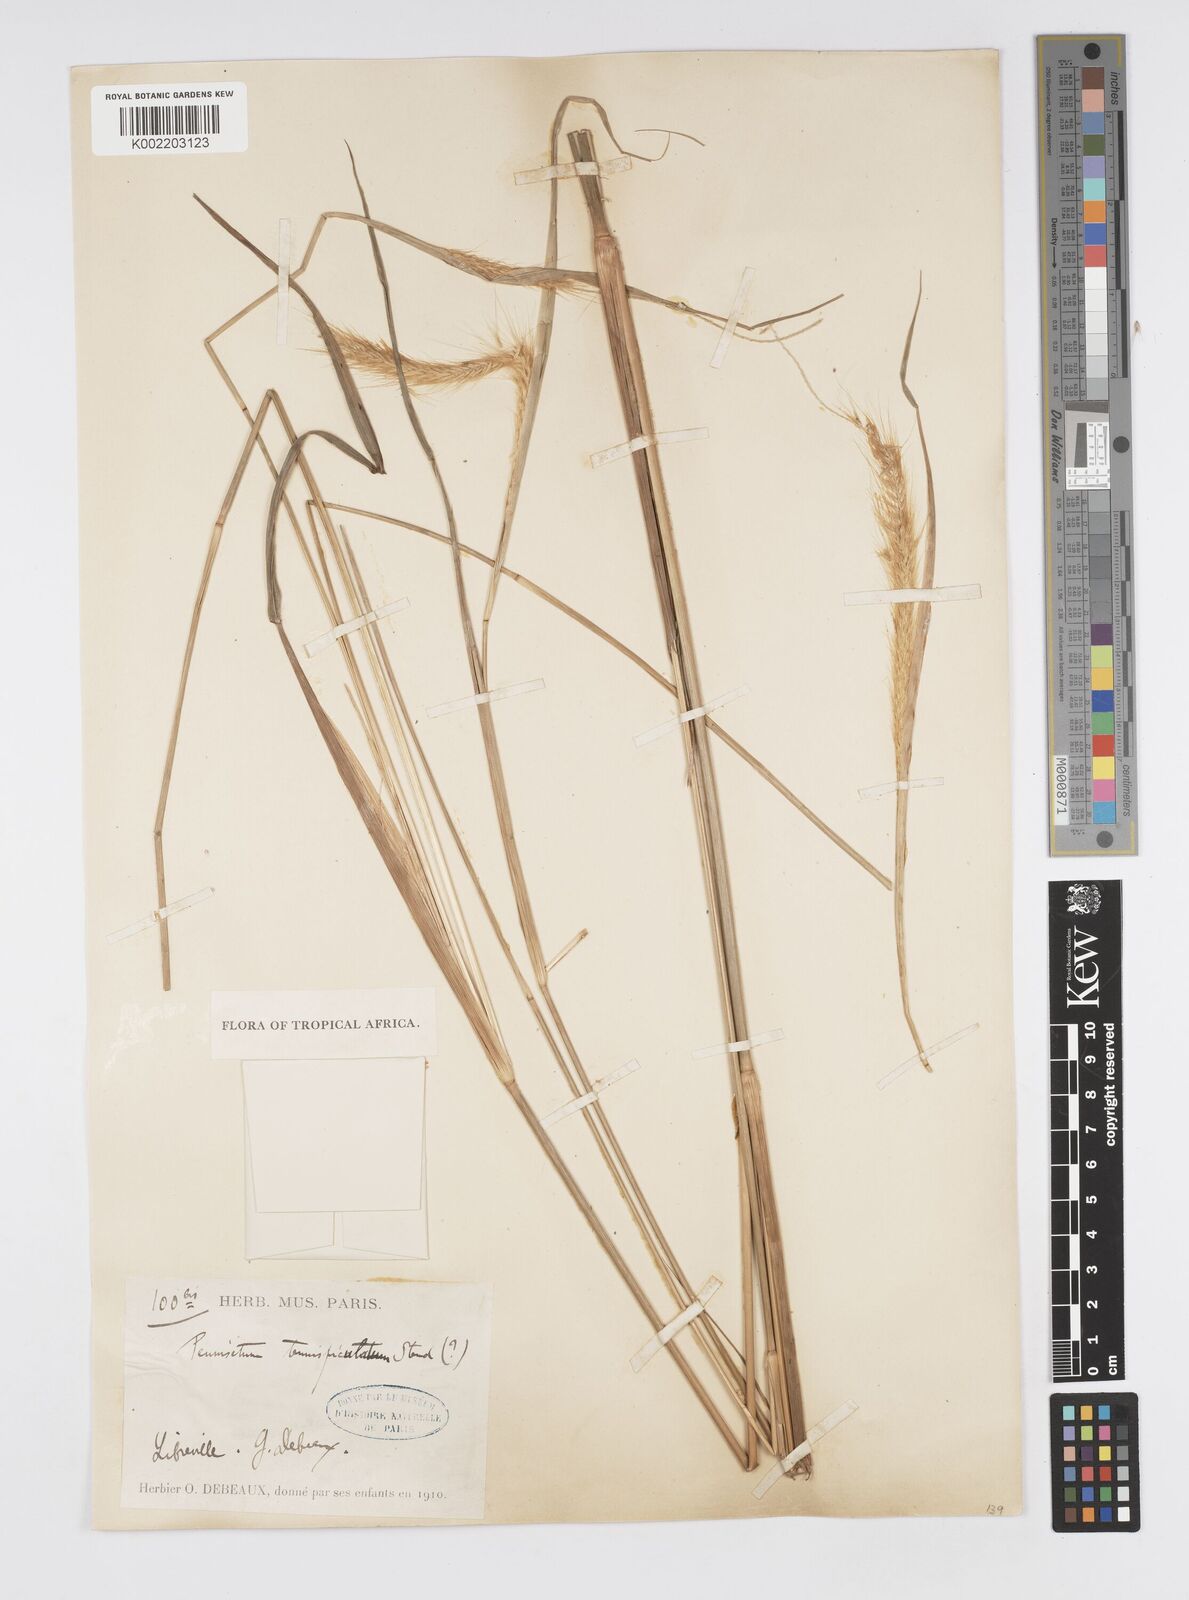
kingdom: Plantae
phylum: Tracheophyta
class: Liliopsida
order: Poales
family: Poaceae
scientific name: Poaceae
